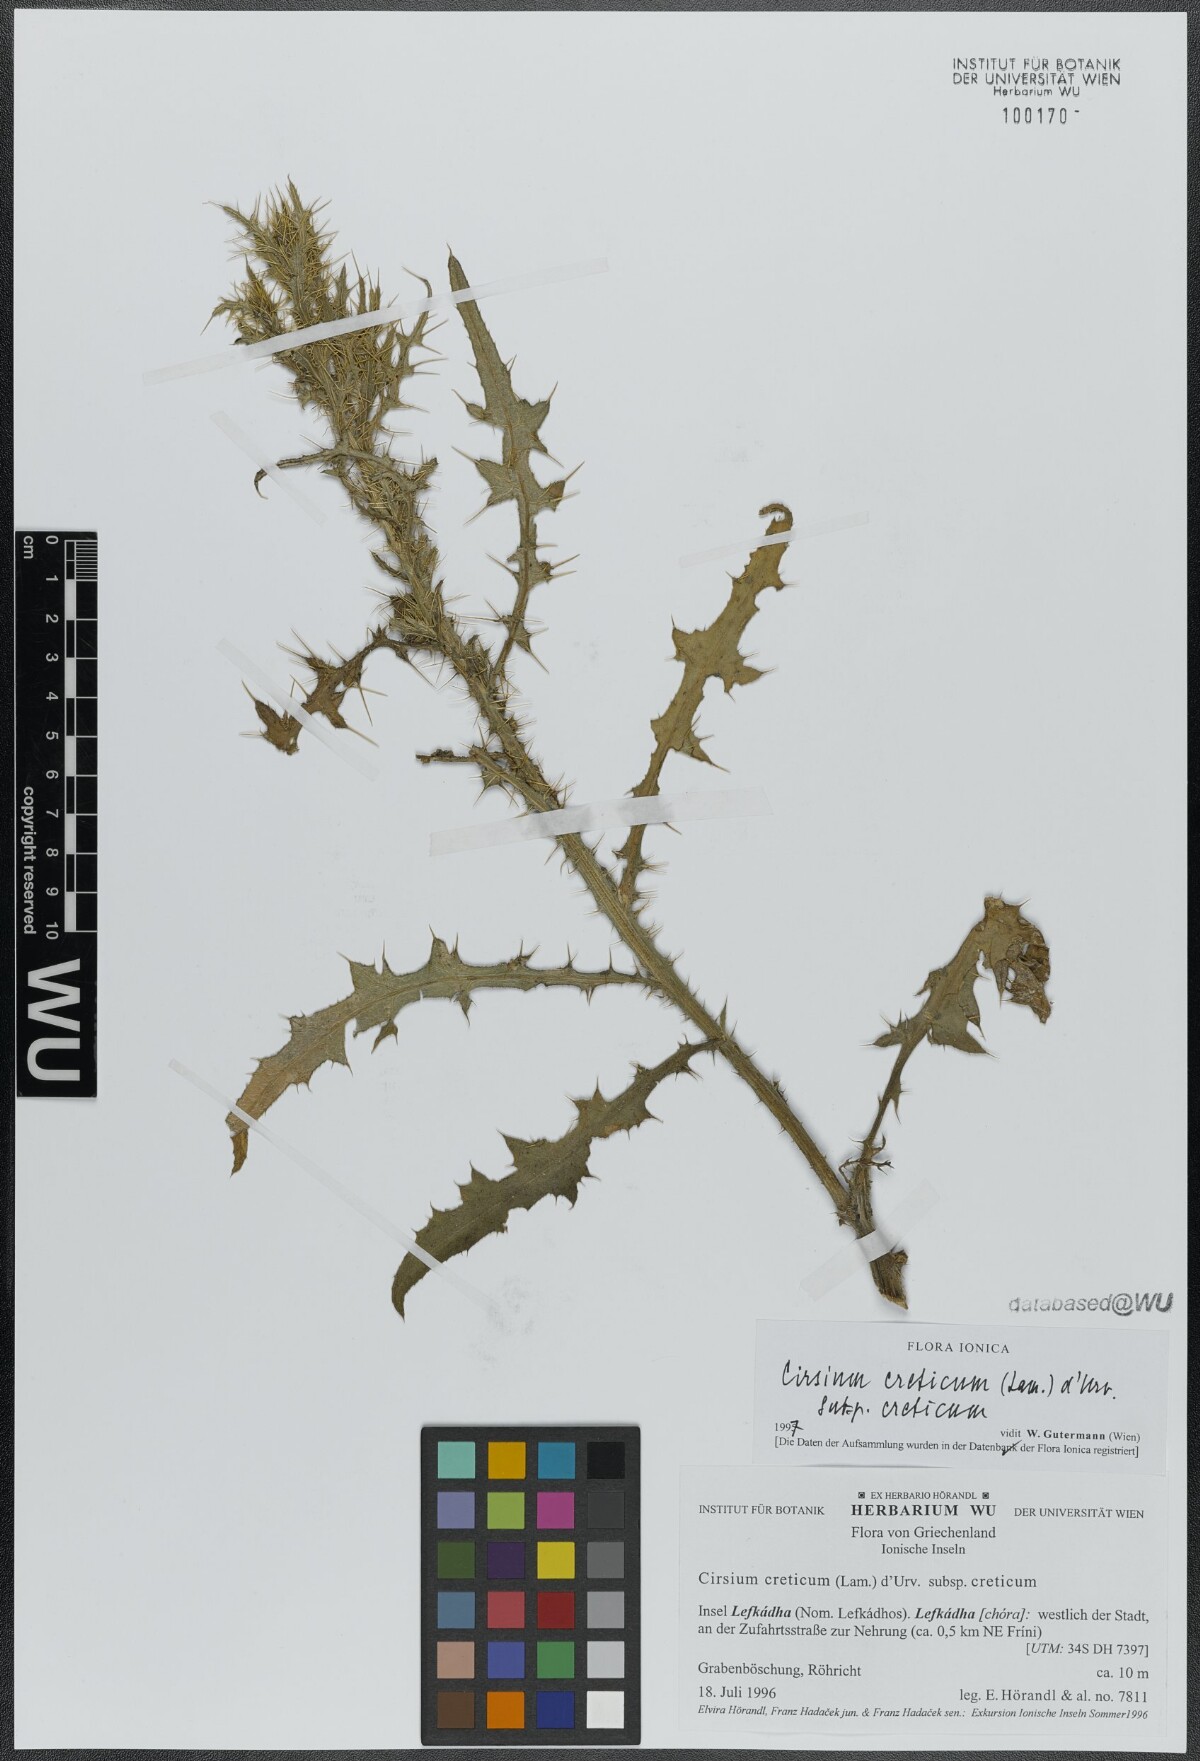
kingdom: Plantae
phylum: Tracheophyta
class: Magnoliopsida
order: Asterales
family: Asteraceae
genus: Cirsium
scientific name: Cirsium creticum
